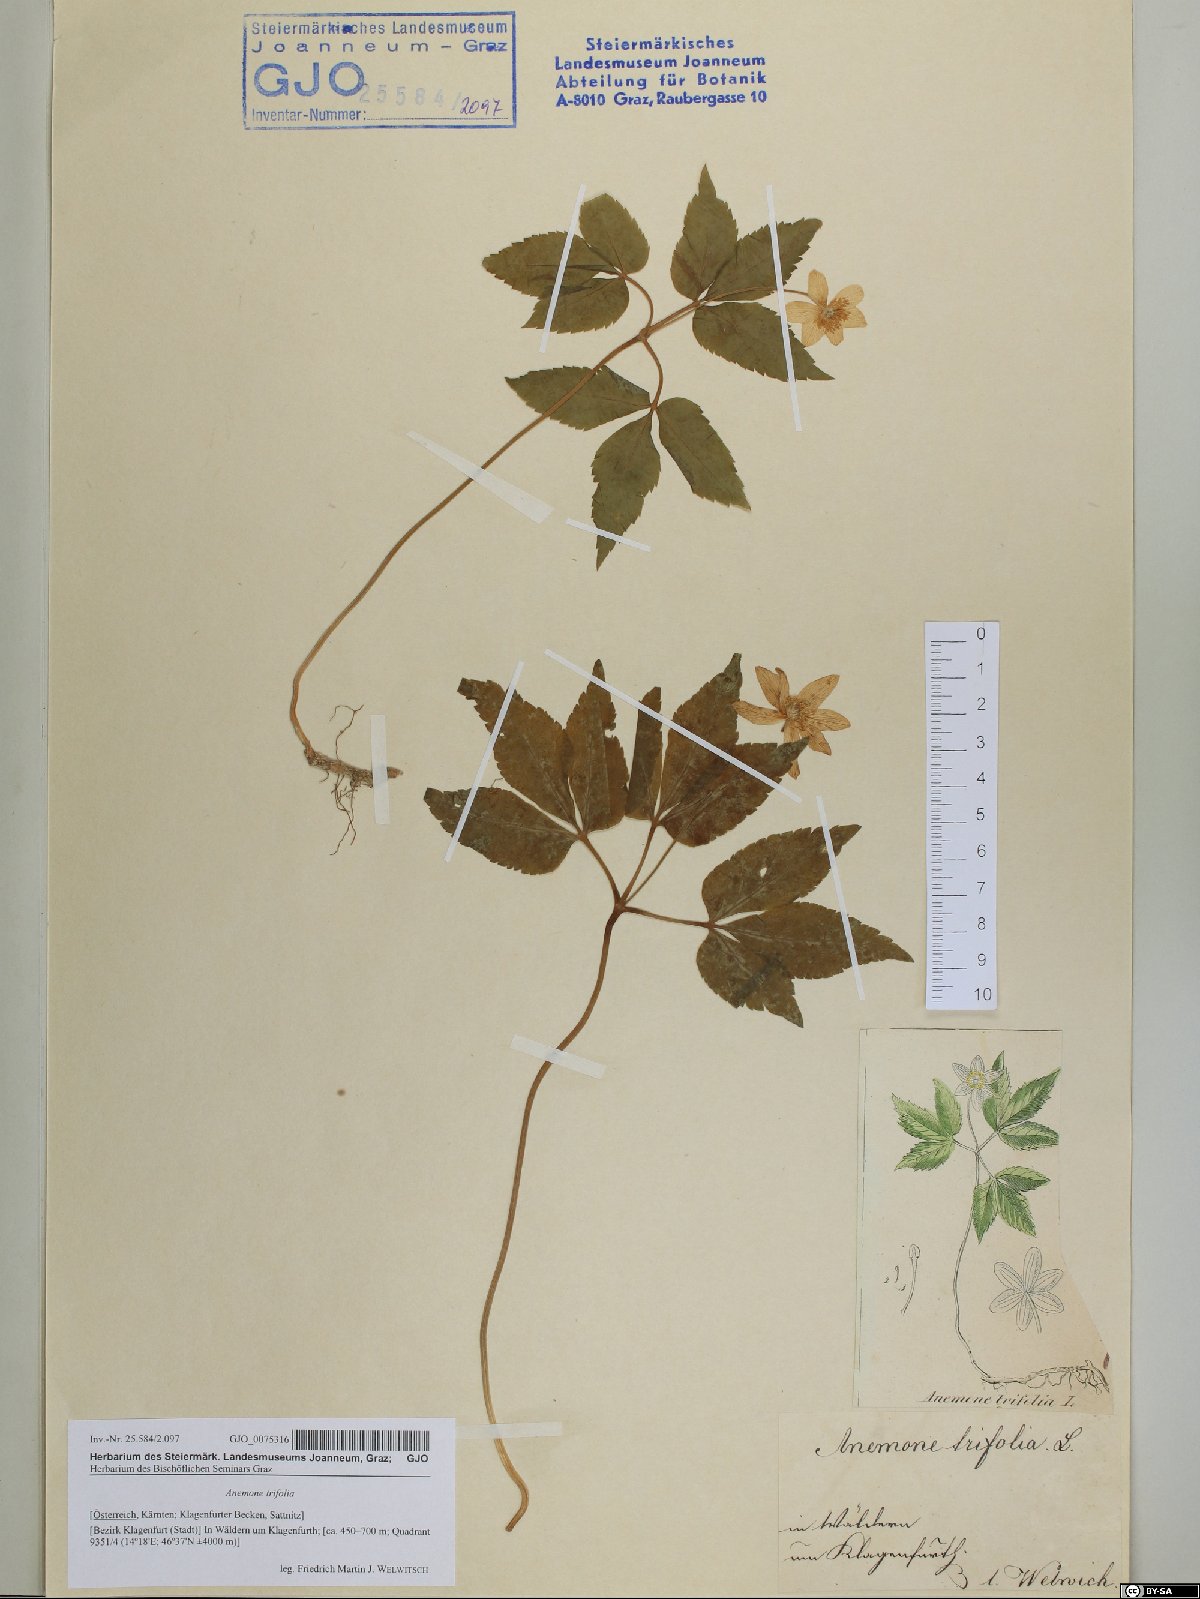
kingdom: Plantae
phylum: Tracheophyta
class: Magnoliopsida
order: Ranunculales
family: Ranunculaceae
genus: Anemone
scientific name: Anemone trifolia
